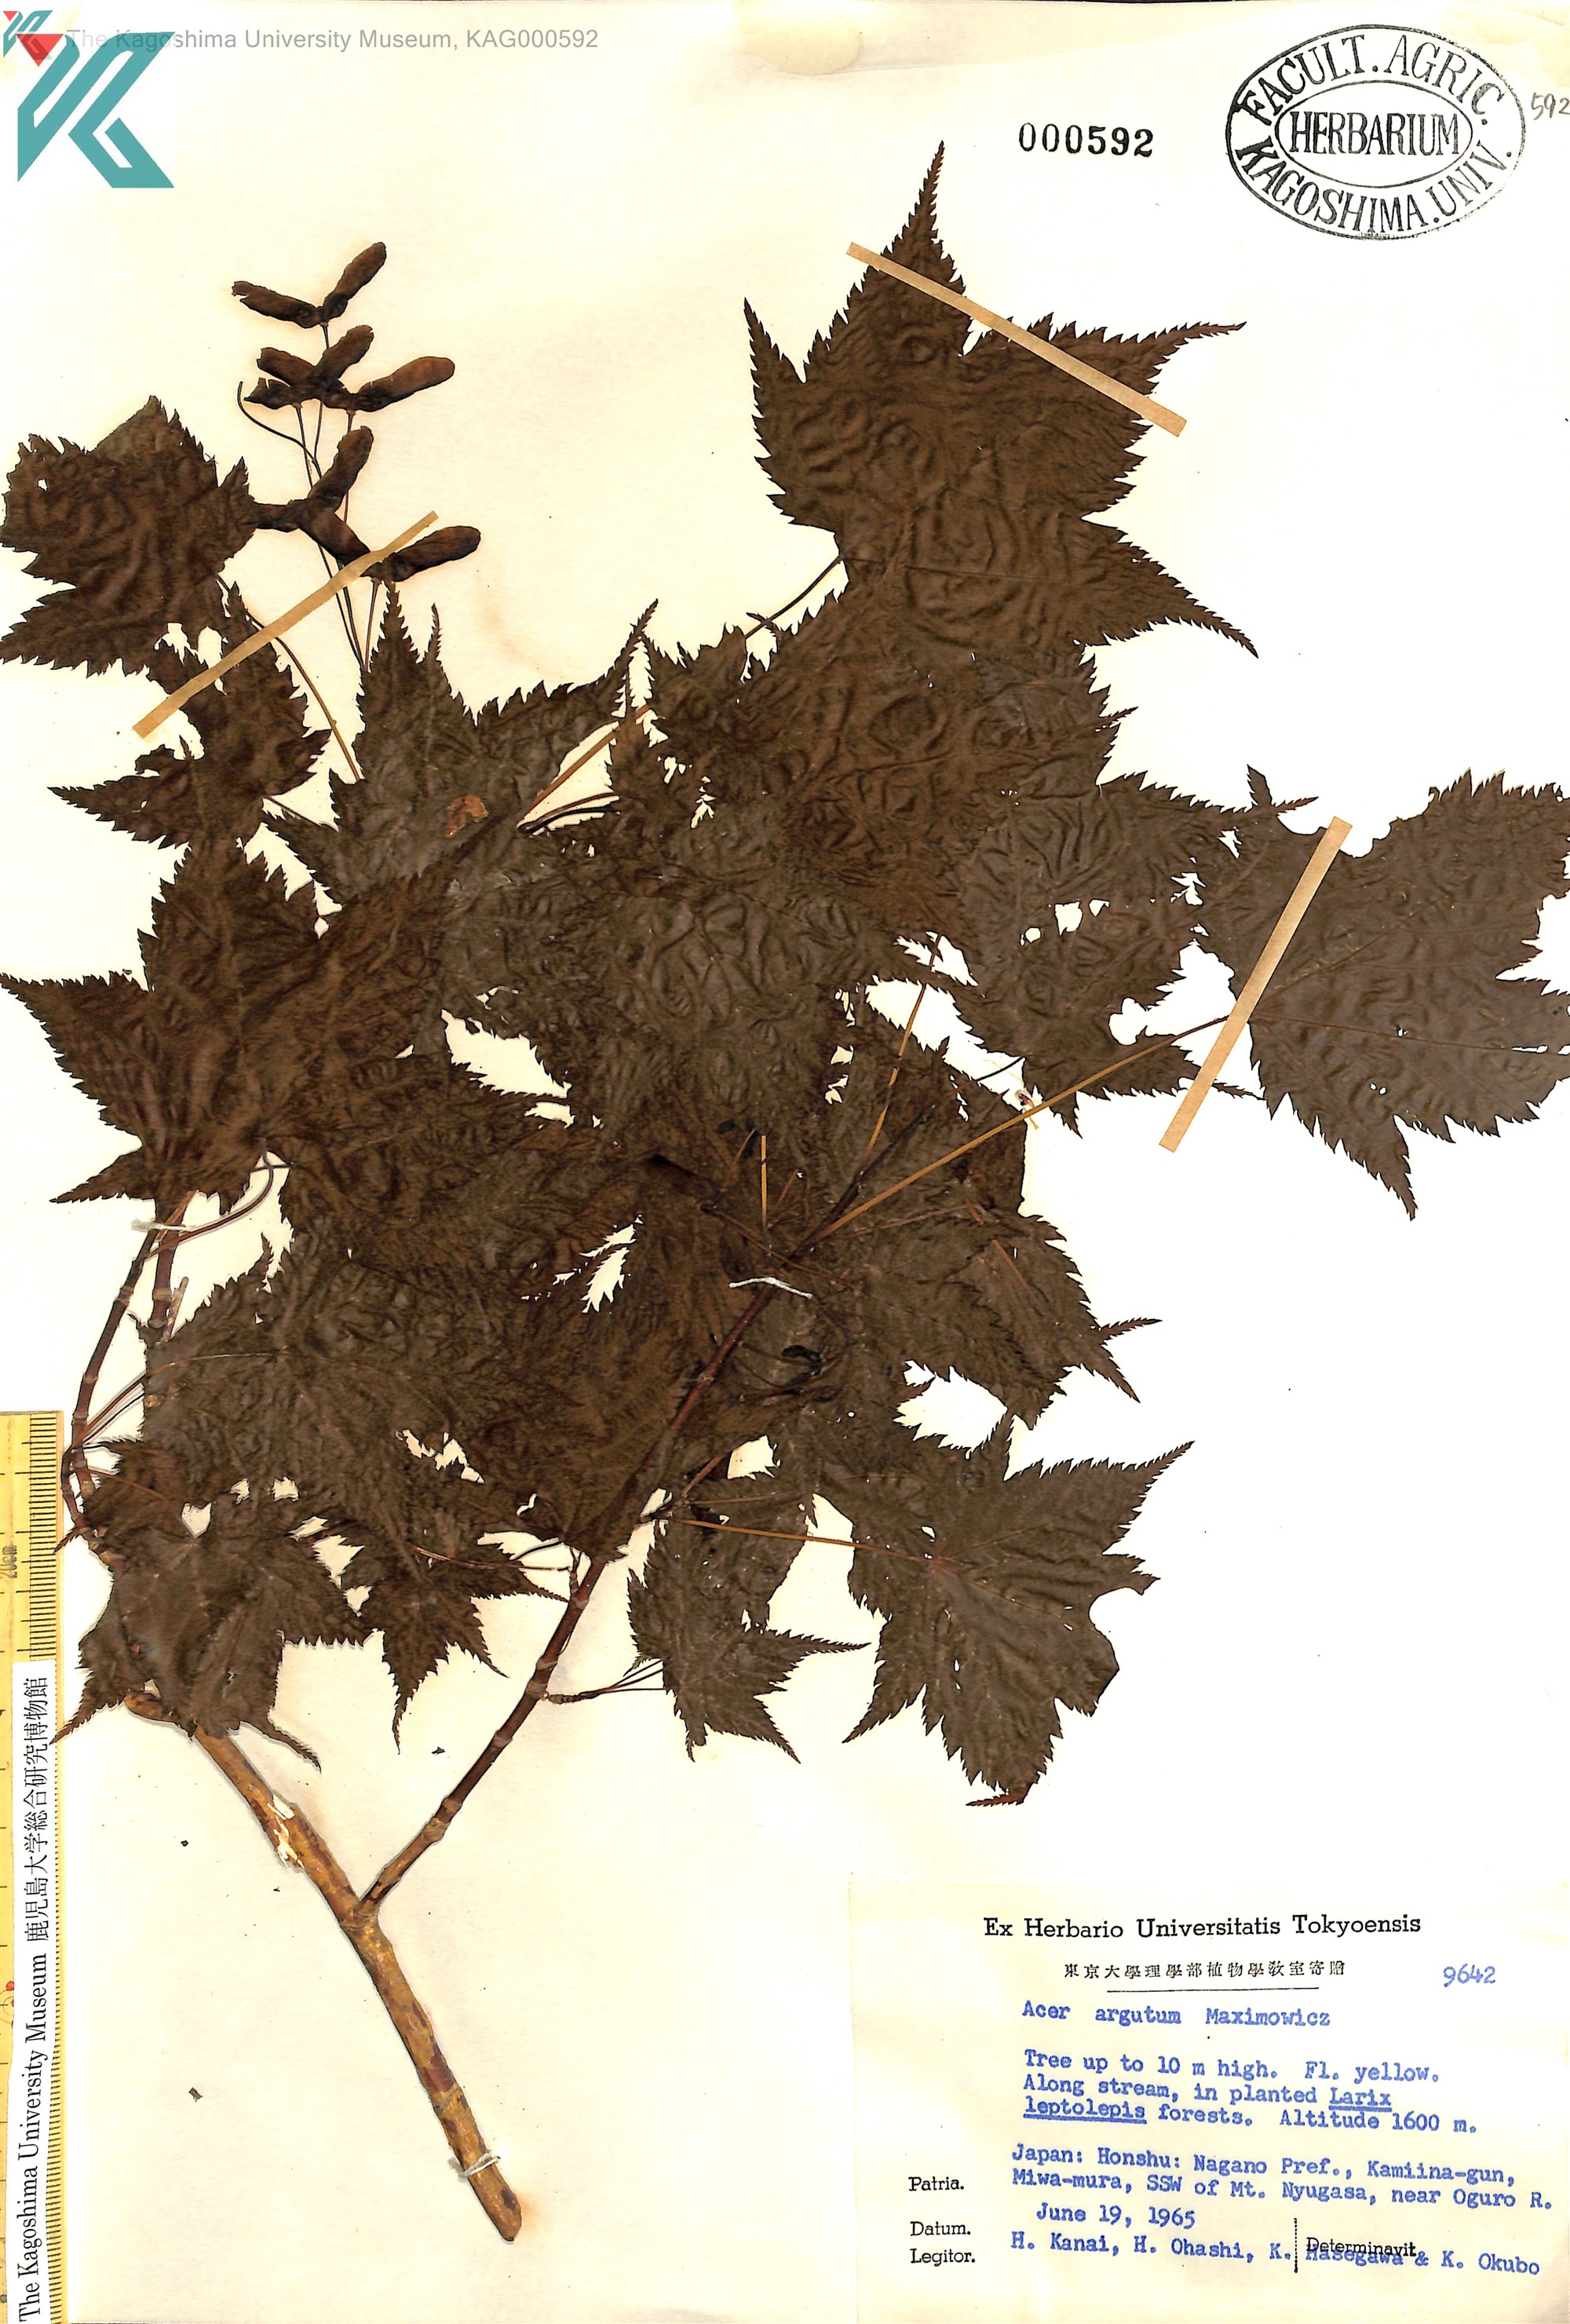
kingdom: Plantae
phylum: Tracheophyta
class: Magnoliopsida
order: Sapindales
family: Sapindaceae
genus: Acer
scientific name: Acer argutum
